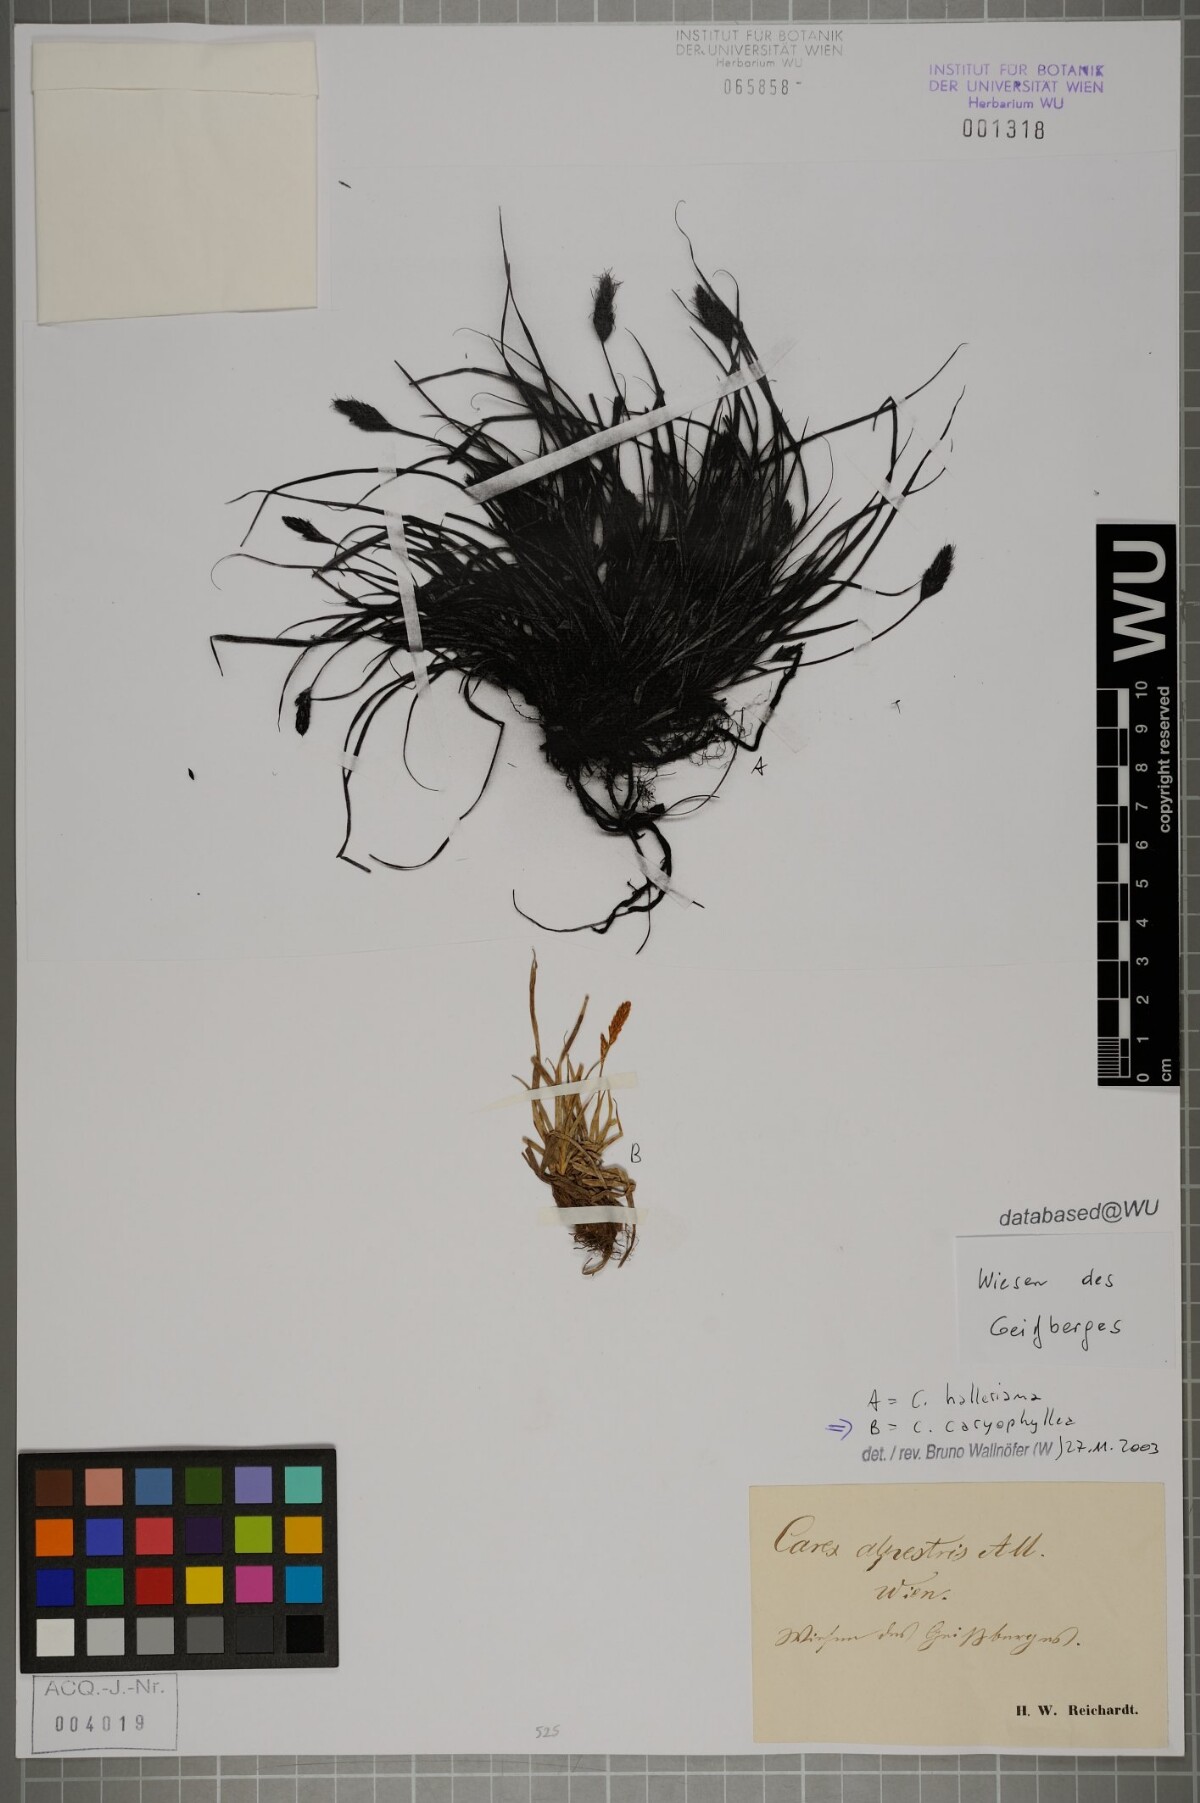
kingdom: Plantae
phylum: Tracheophyta
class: Liliopsida
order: Poales
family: Cyperaceae
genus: Carex
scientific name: Carex caryophyllea
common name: Spring sedge
